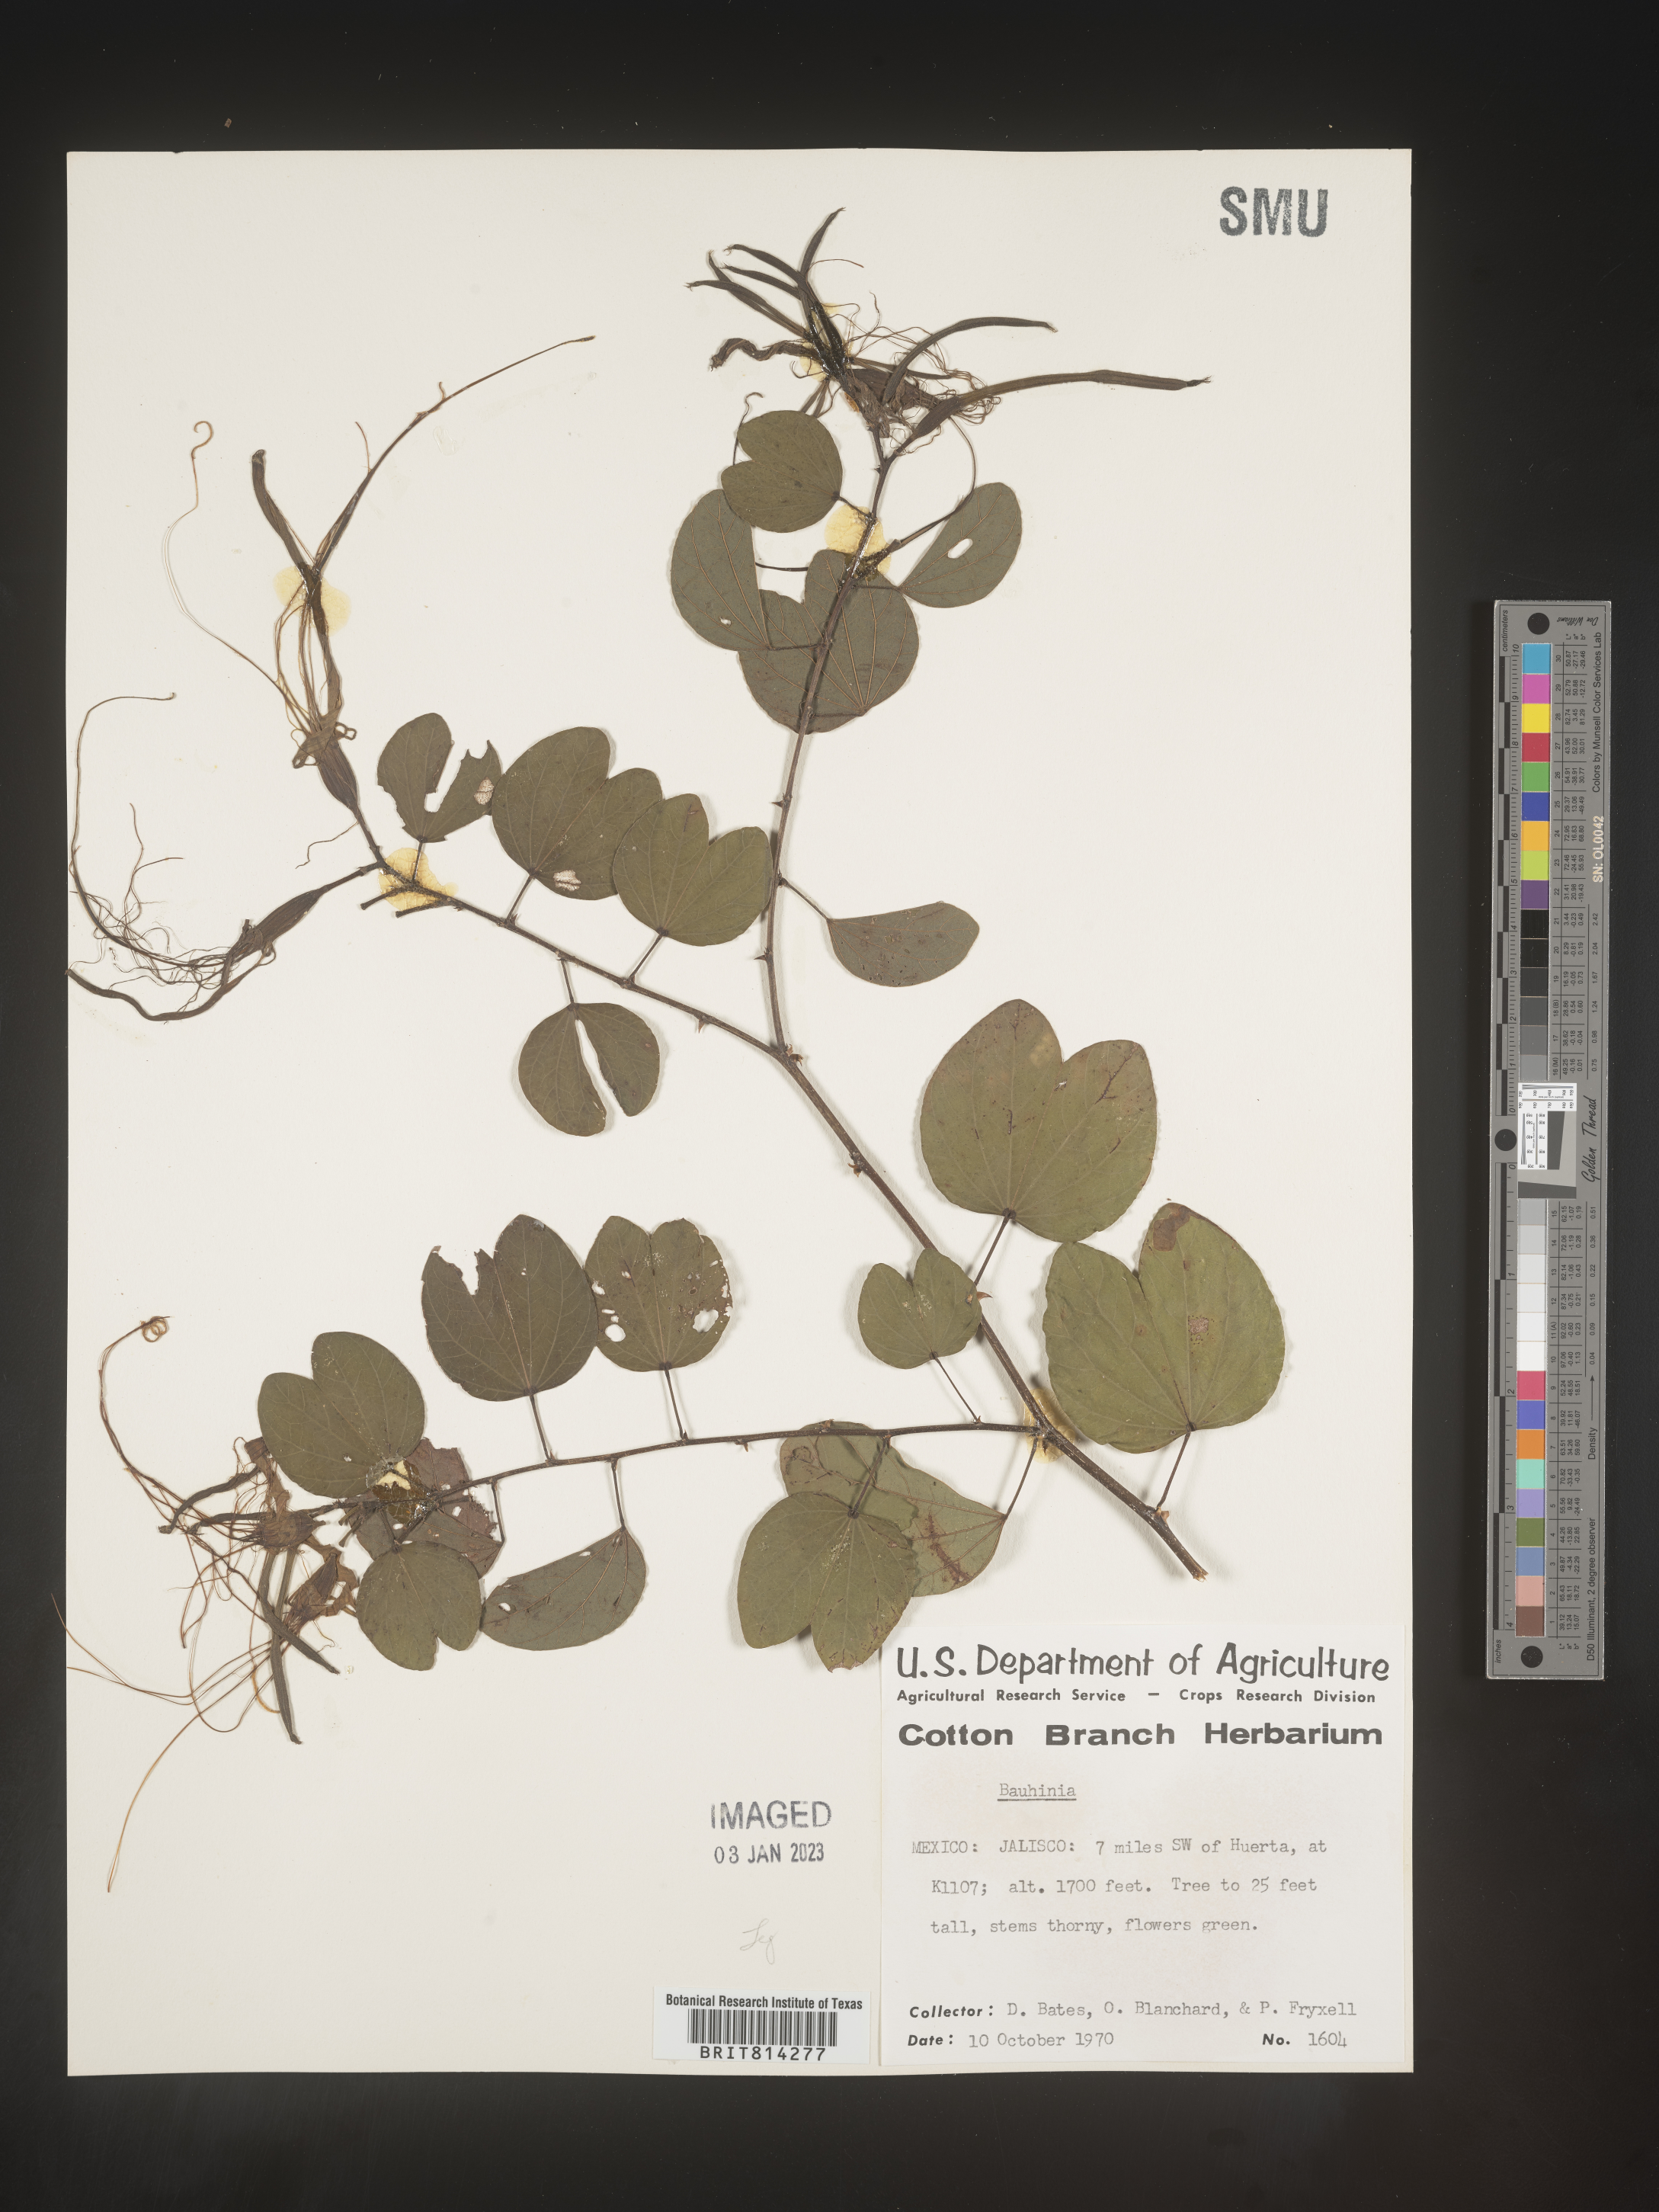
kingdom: Plantae
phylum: Tracheophyta
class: Magnoliopsida
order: Fabales
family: Fabaceae
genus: Bauhinia
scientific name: Bauhinia
